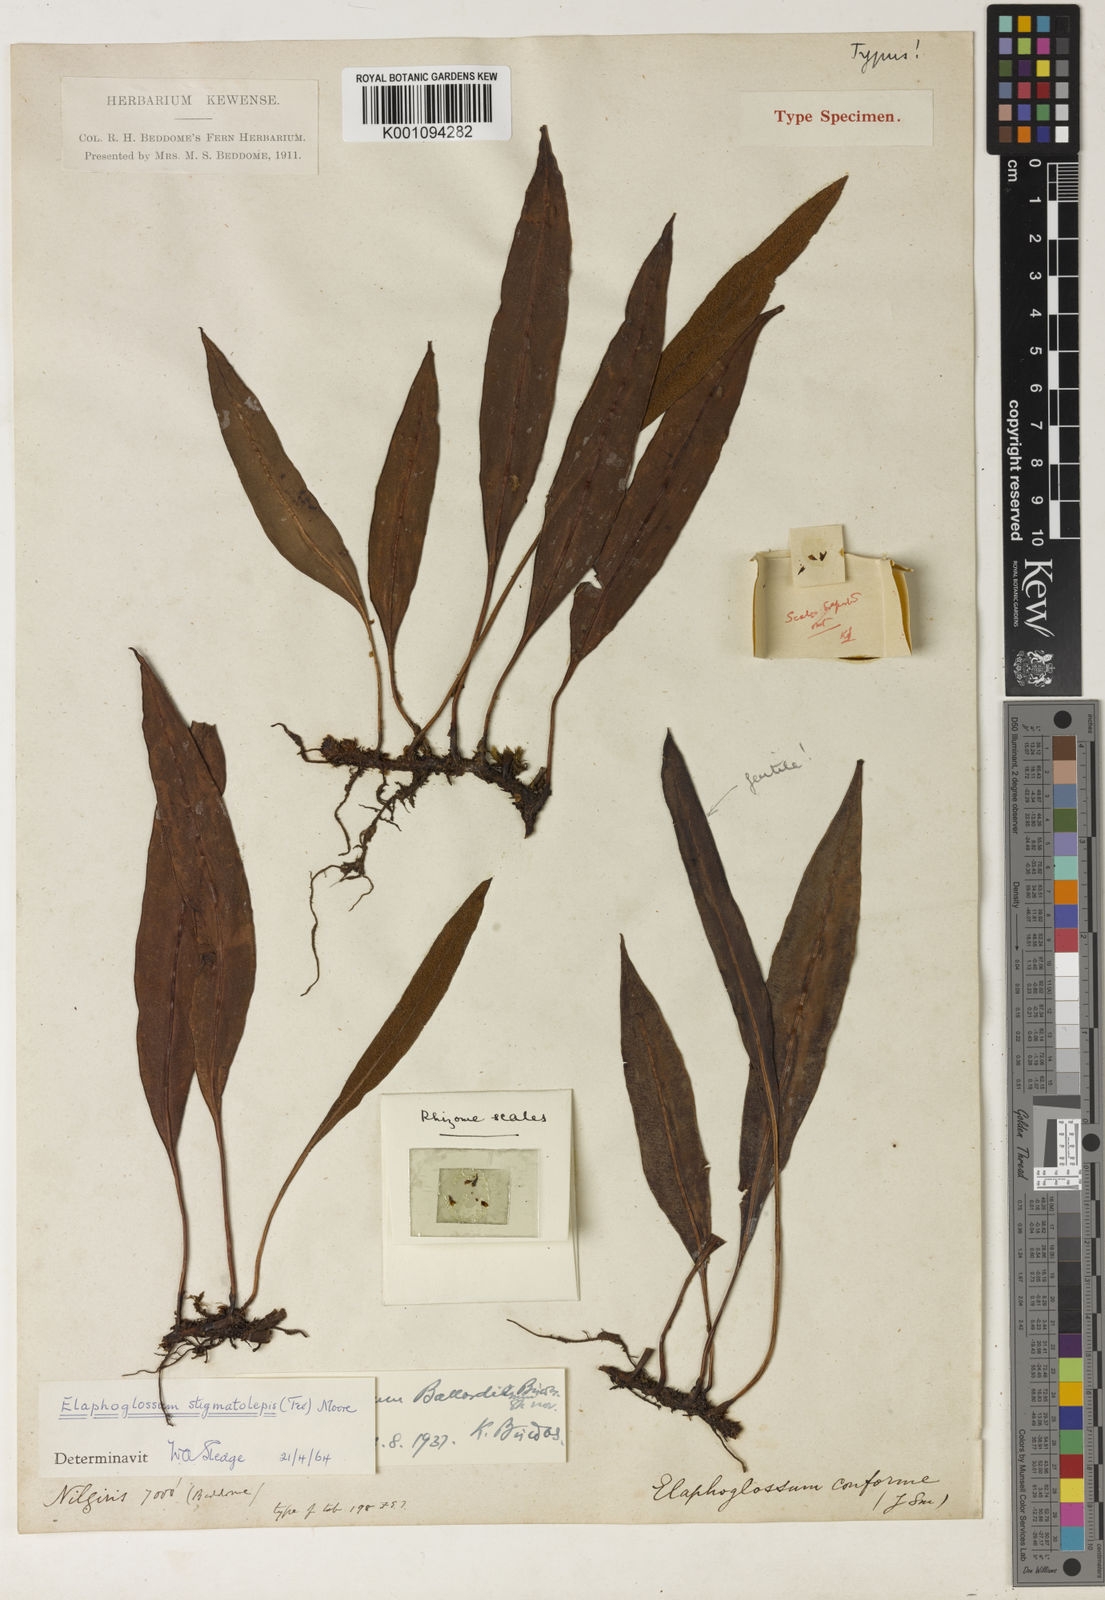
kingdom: Plantae
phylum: Tracheophyta
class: Polypodiopsida
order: Polypodiales
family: Dryopteridaceae
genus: Elaphoglossum
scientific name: Elaphoglossum
